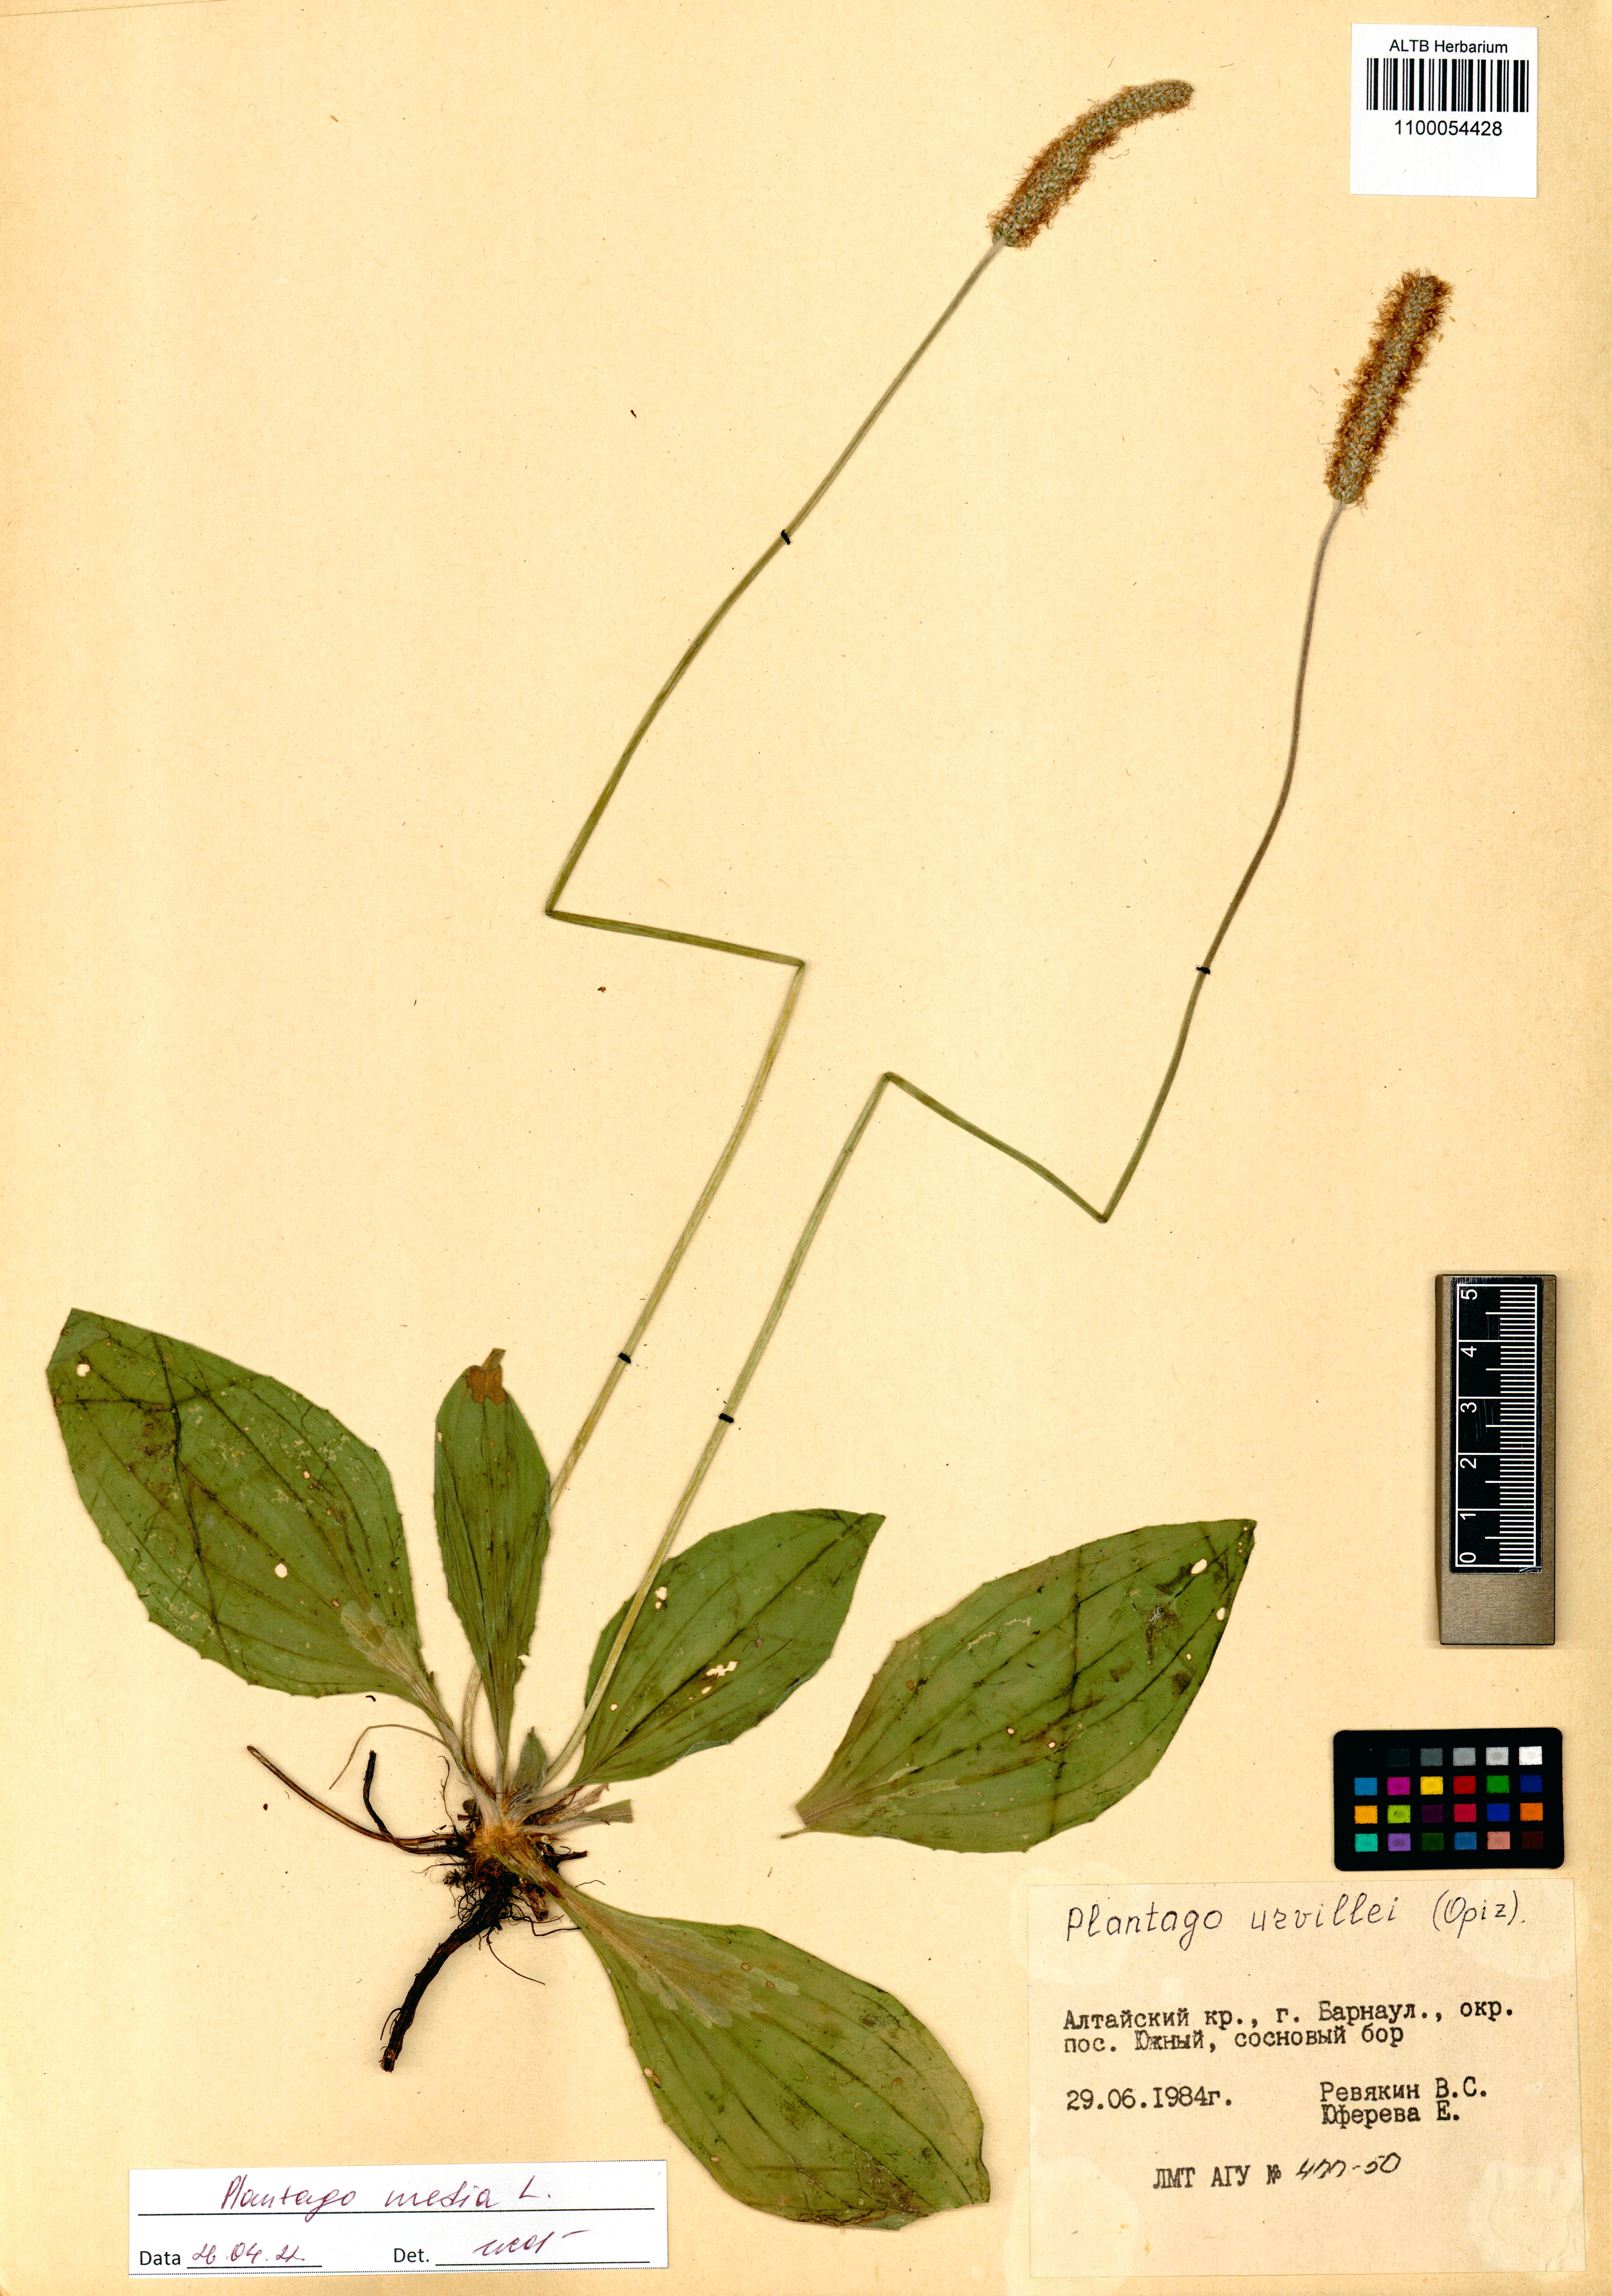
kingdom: Plantae
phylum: Tracheophyta
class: Magnoliopsida
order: Lamiales
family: Plantaginaceae
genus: Plantago
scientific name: Plantago media
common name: Hoary plantain
